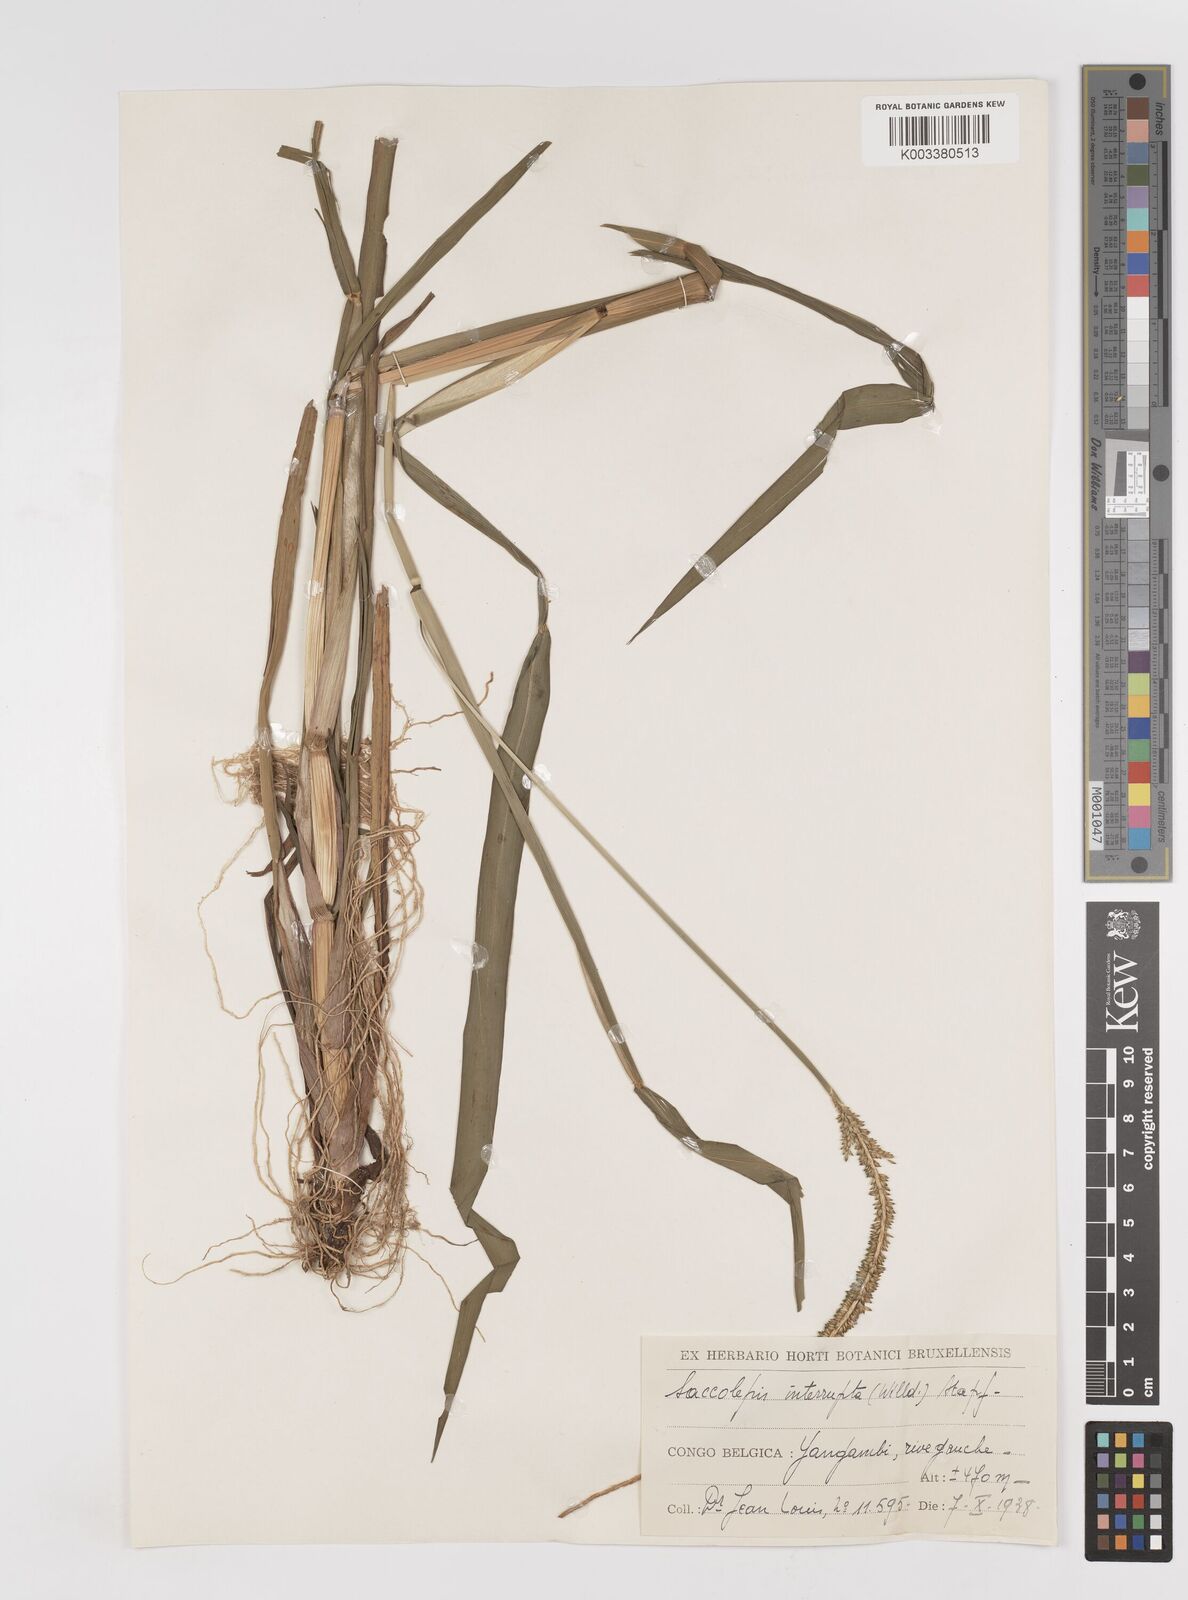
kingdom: Plantae
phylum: Tracheophyta
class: Liliopsida
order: Poales
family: Poaceae
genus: Sacciolepis
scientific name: Sacciolepis africana
